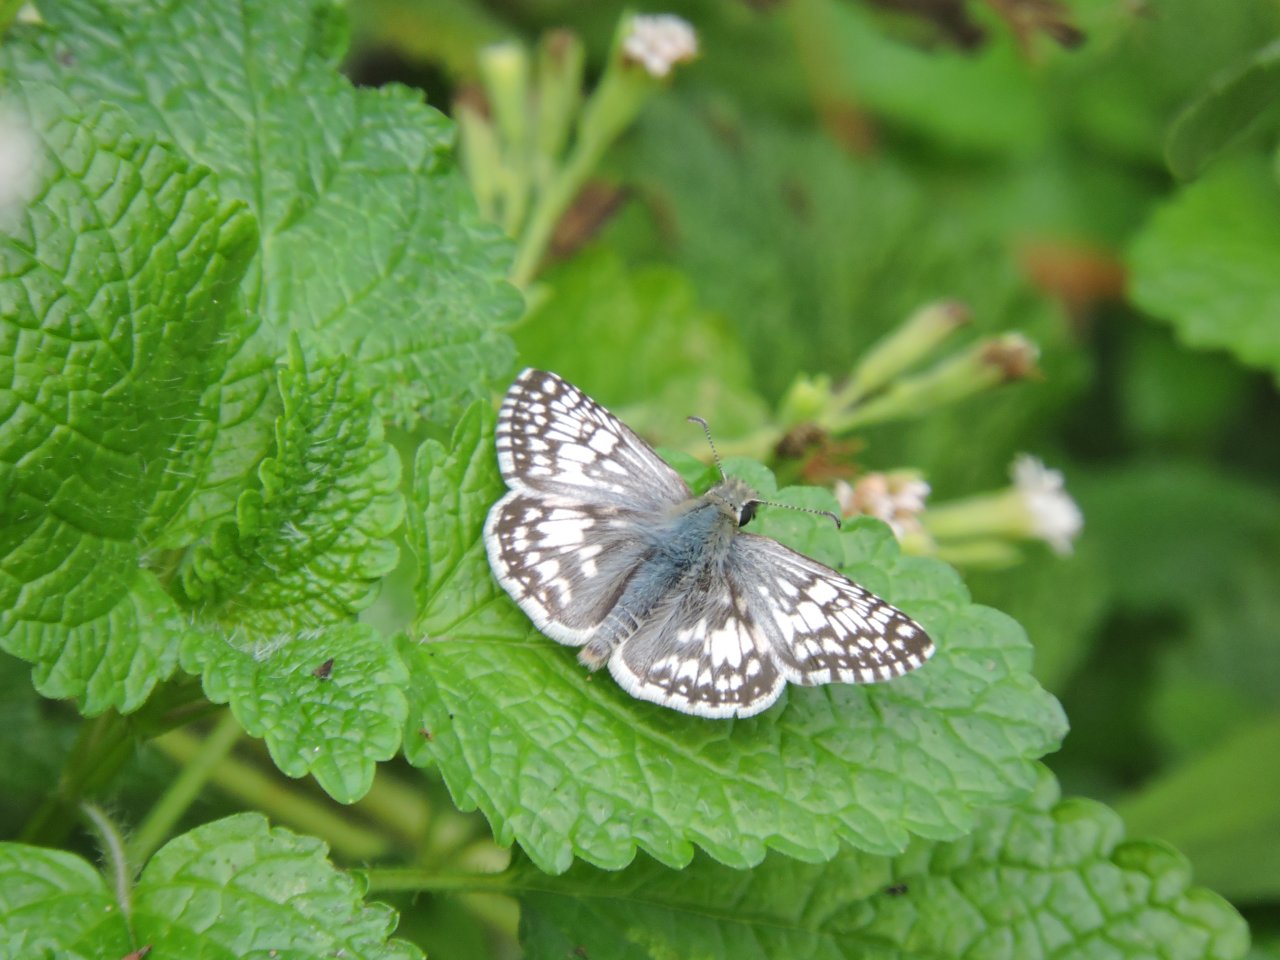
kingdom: Animalia
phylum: Arthropoda
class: Insecta
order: Lepidoptera
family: Hesperiidae
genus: Pyrgus
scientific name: Pyrgus
